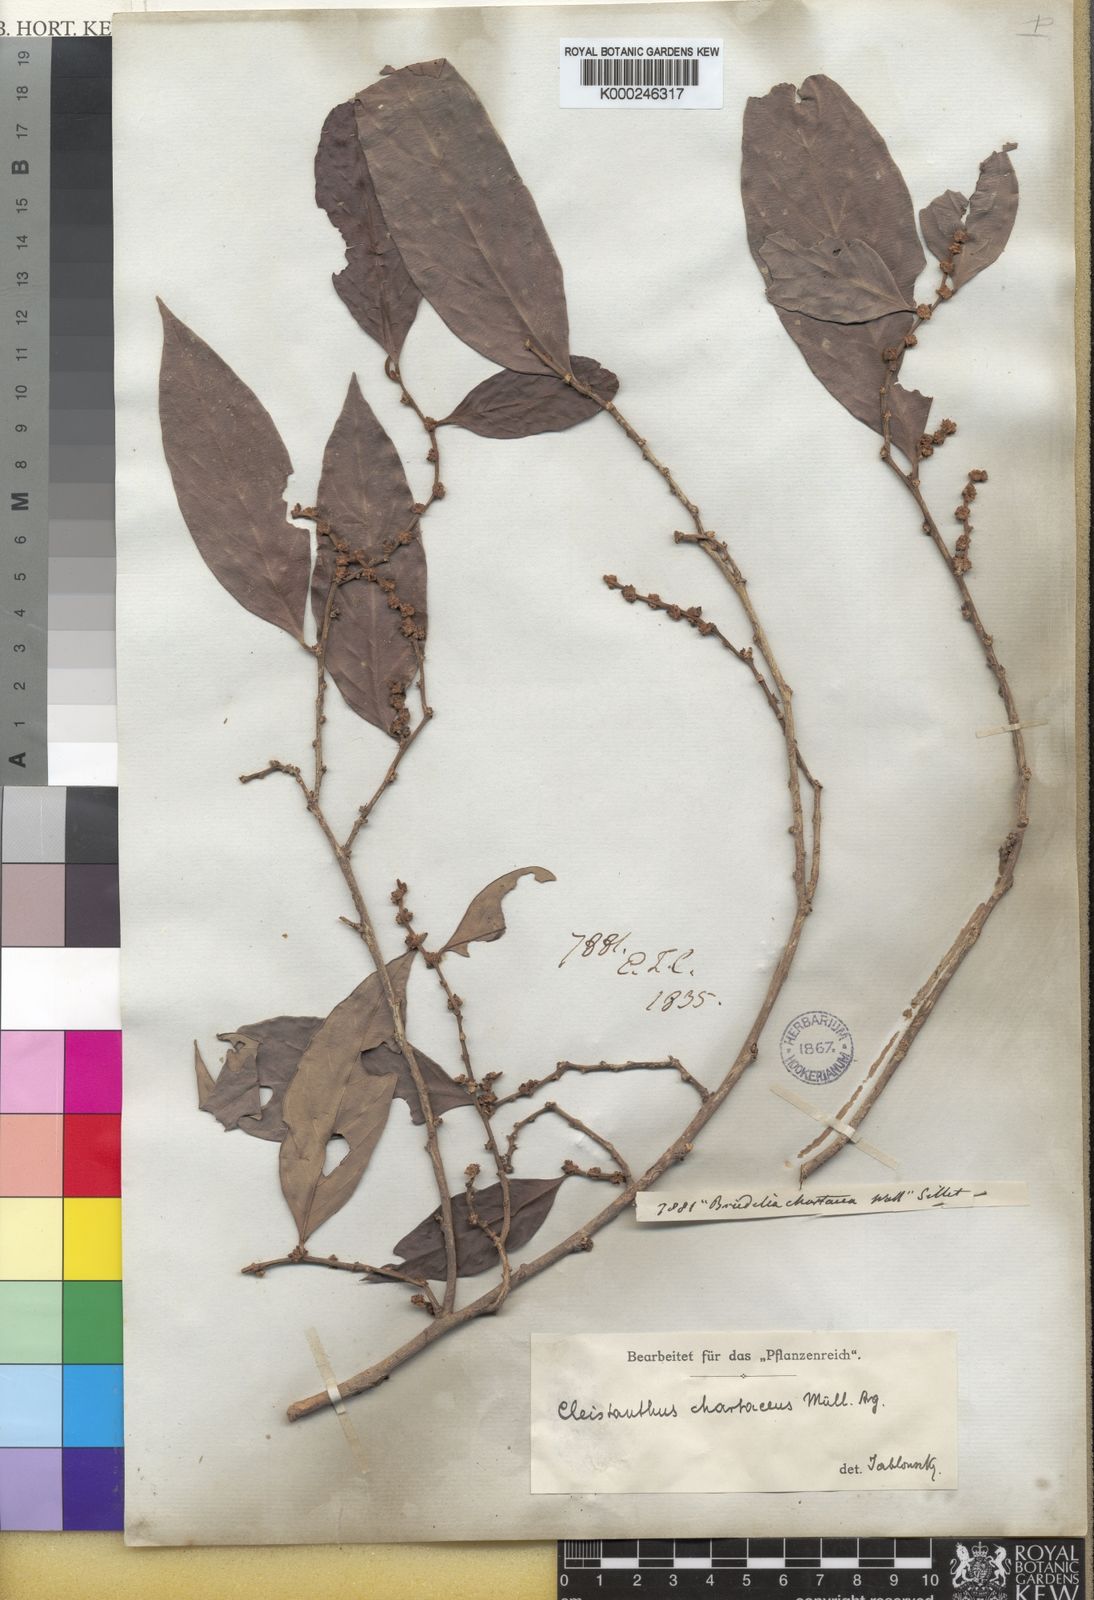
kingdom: Plantae
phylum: Tracheophyta
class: Magnoliopsida
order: Malpighiales
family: Phyllanthaceae
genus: Cleistanthus
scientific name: Cleistanthus
